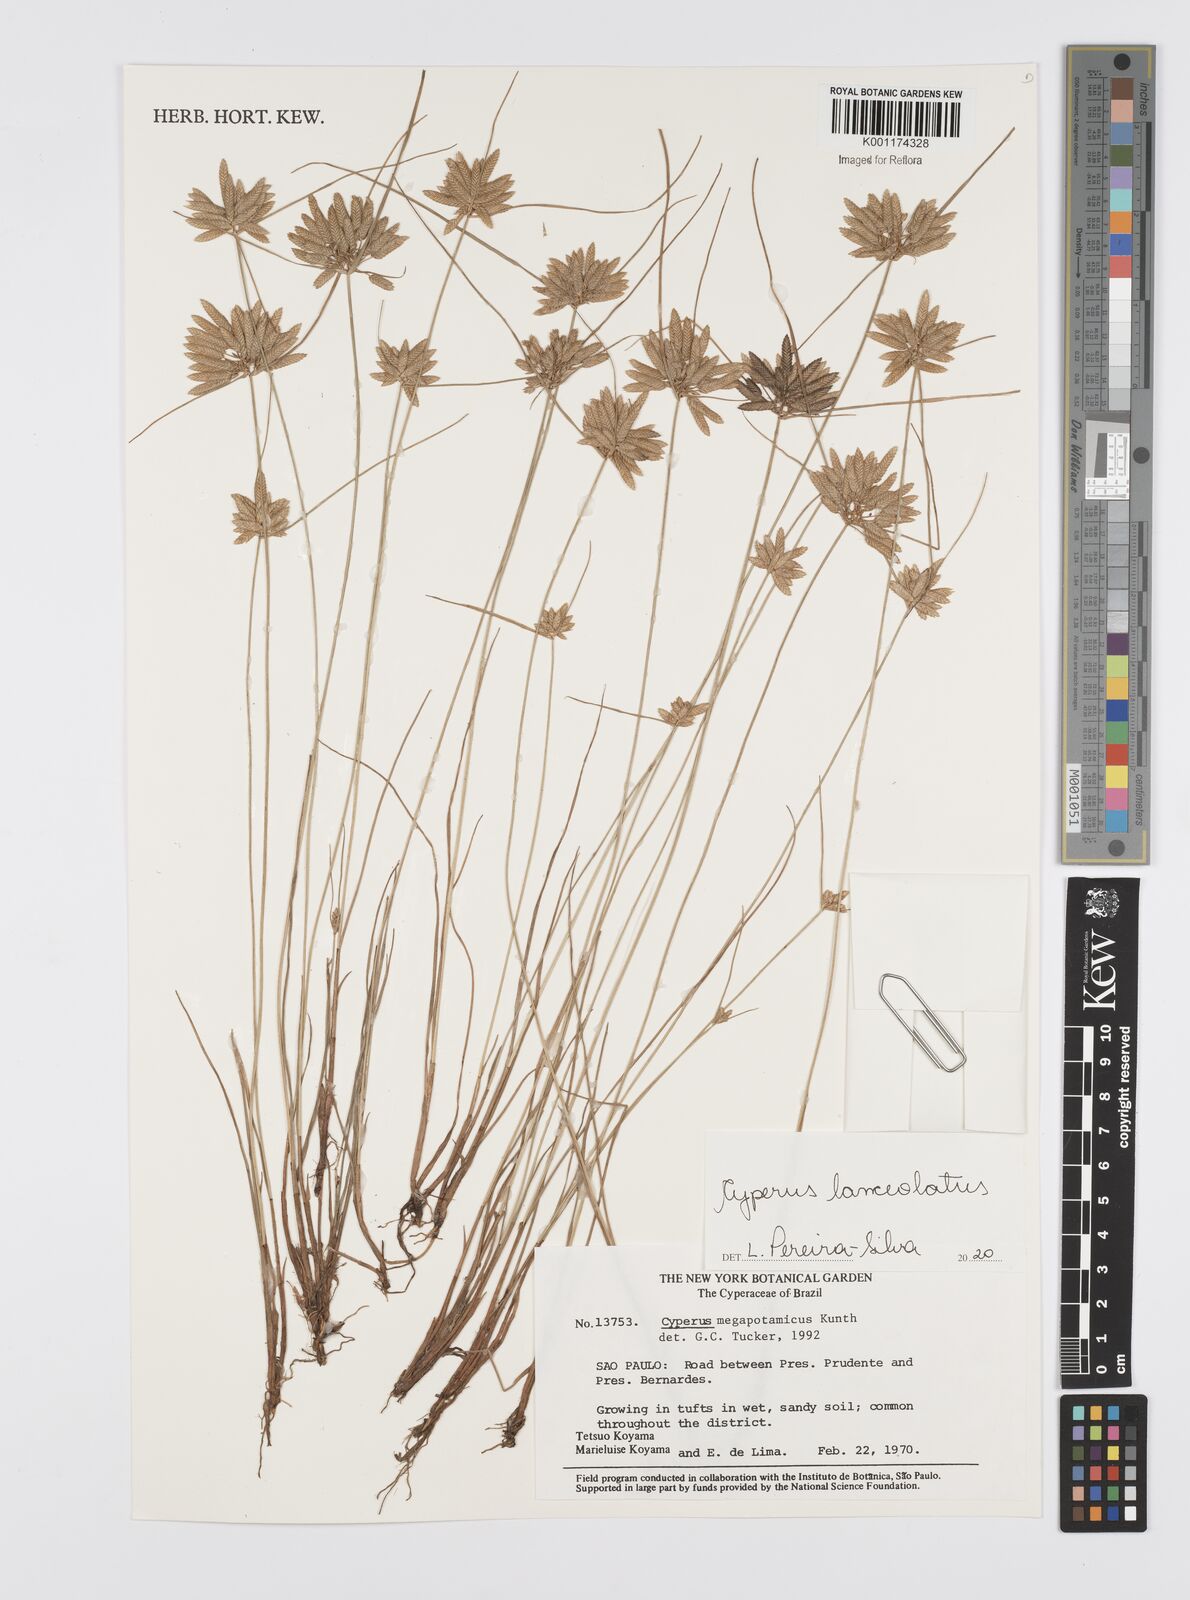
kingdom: Plantae
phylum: Tracheophyta
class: Liliopsida
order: Poales
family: Cyperaceae
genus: Cyperus
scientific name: Cyperus lanceolatus
